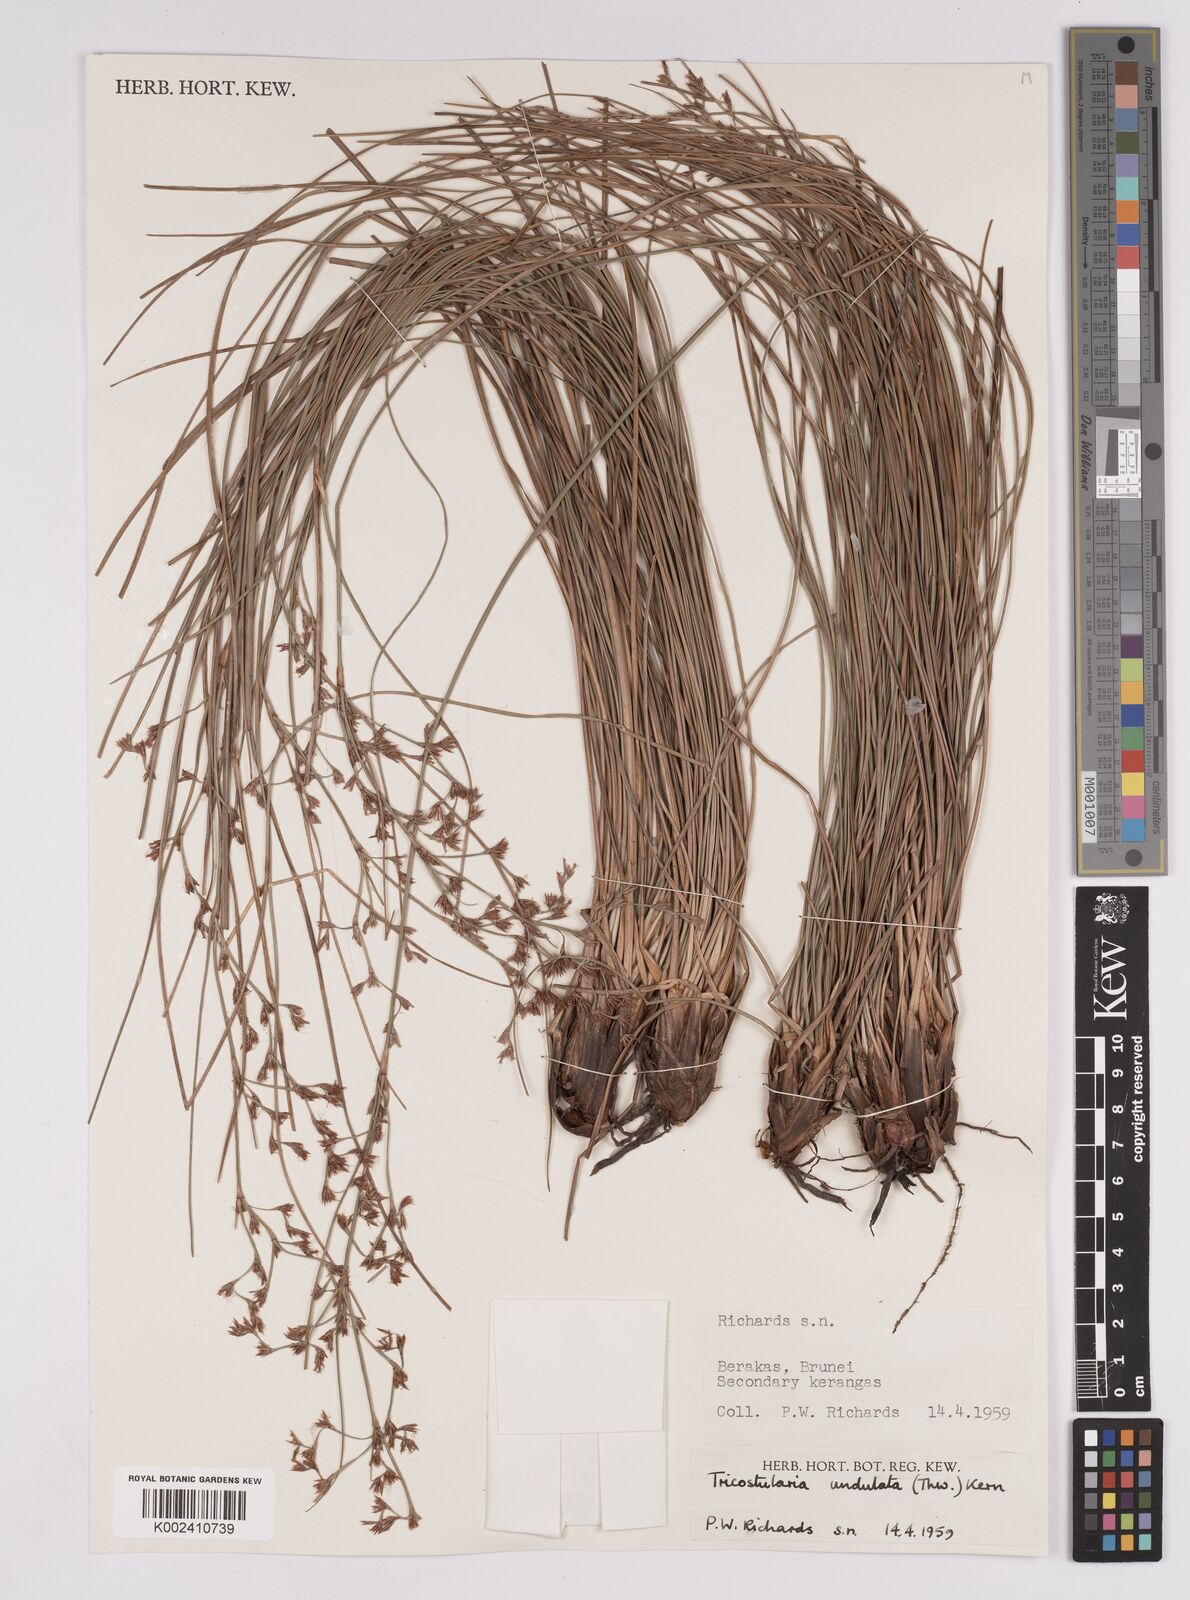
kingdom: Plantae
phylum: Tracheophyta
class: Liliopsida
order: Poales
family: Cyperaceae
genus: Anthelepis
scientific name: Anthelepis undulata
